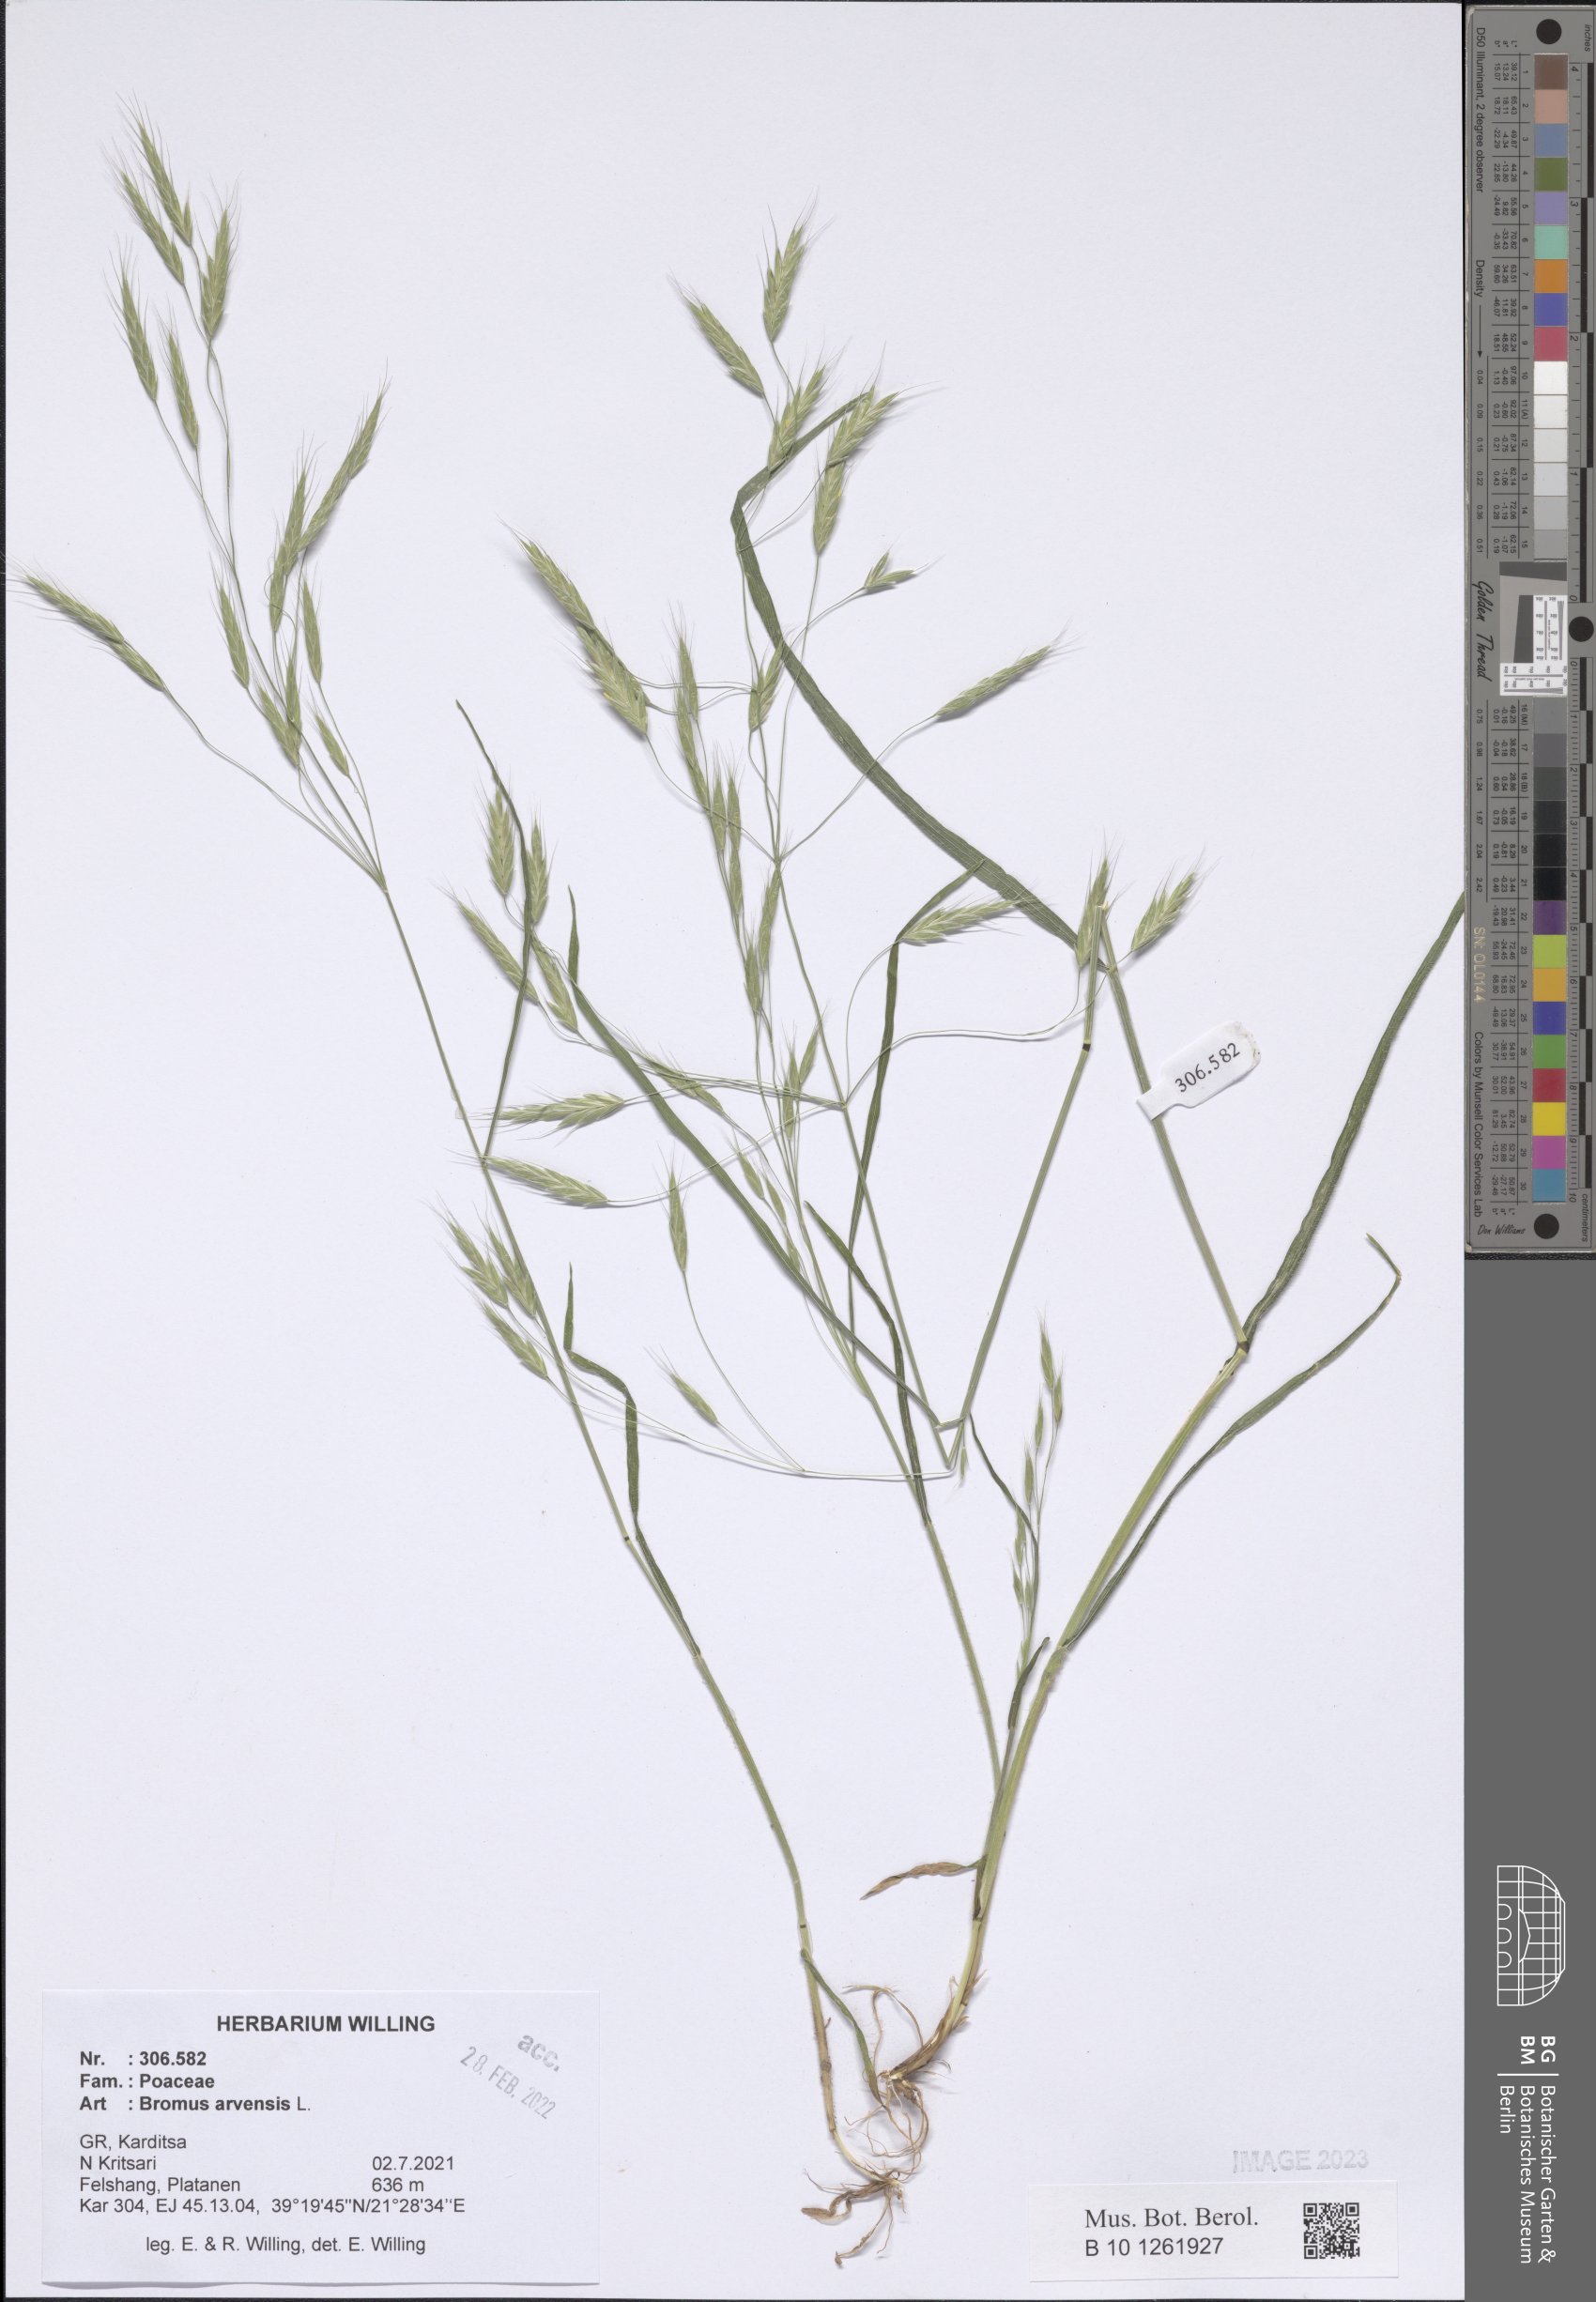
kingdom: Plantae
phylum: Tracheophyta
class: Liliopsida
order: Poales
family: Poaceae
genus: Bromus
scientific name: Bromus arvensis
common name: Field brome
